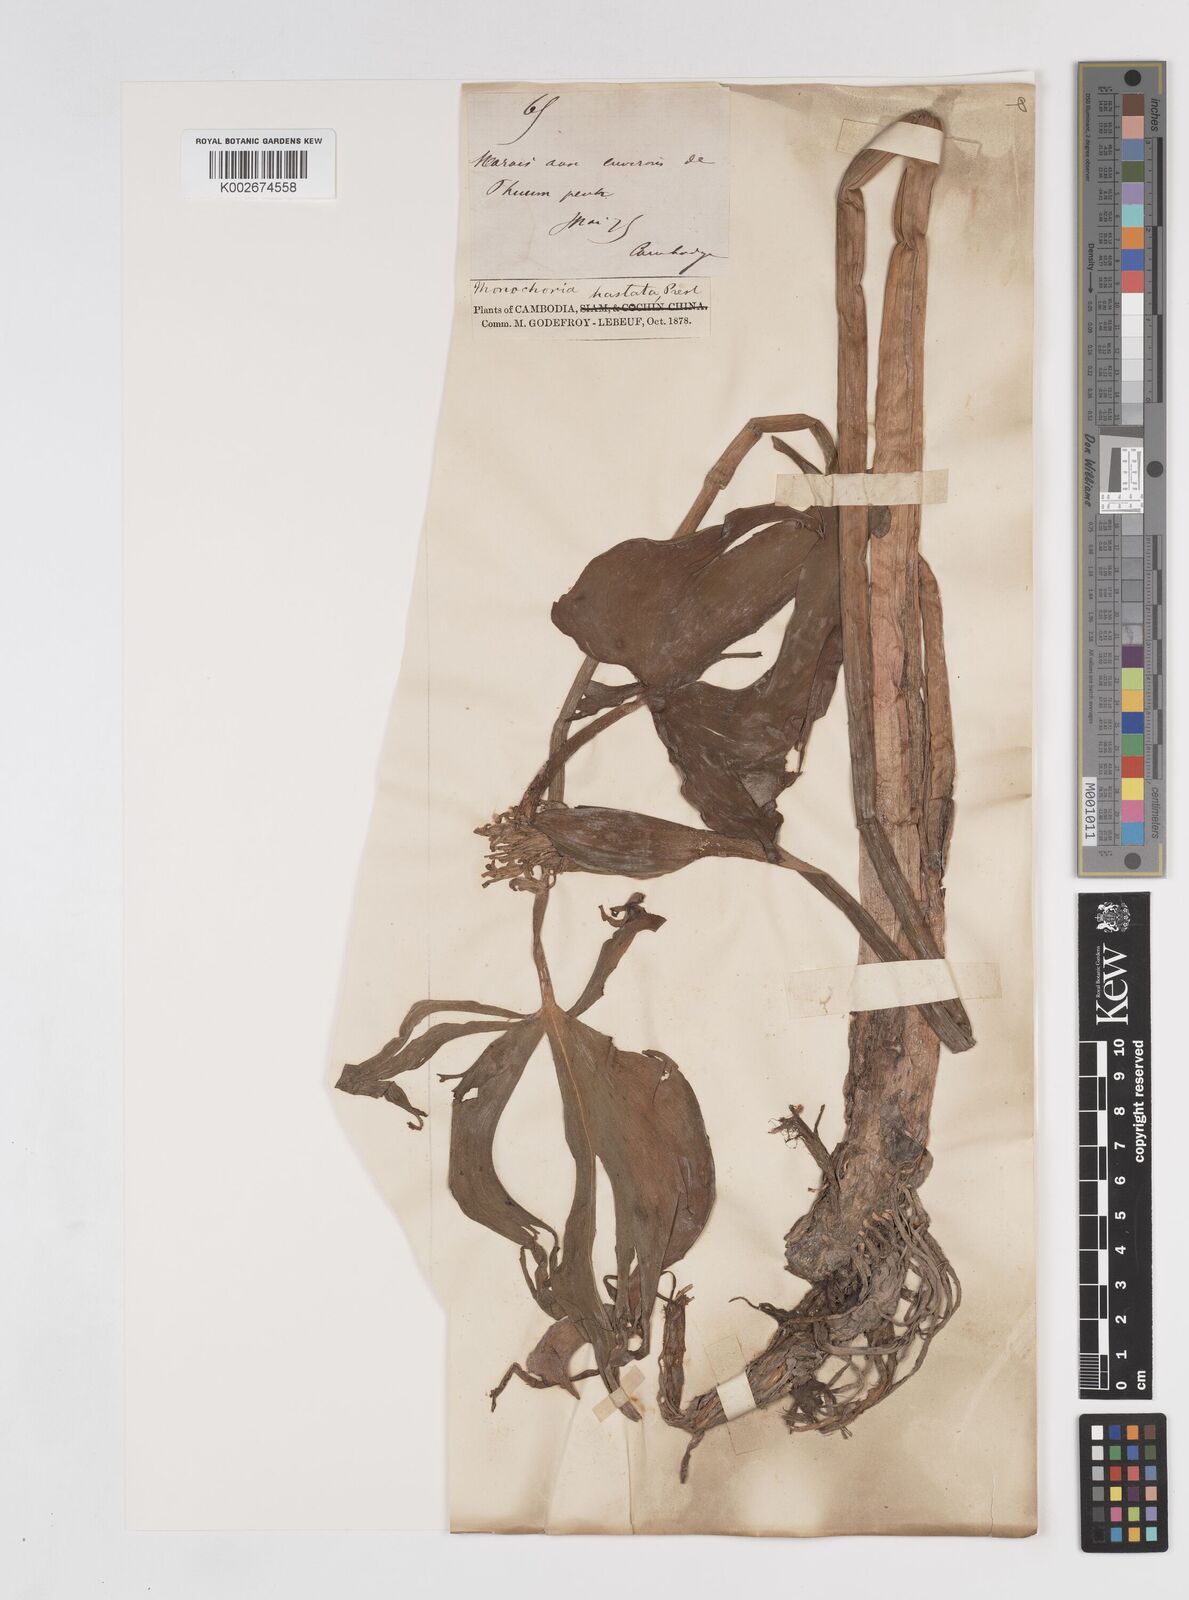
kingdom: Plantae
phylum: Tracheophyta
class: Liliopsida
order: Commelinales
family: Pontederiaceae
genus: Pontederia
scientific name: Pontederia hastata
